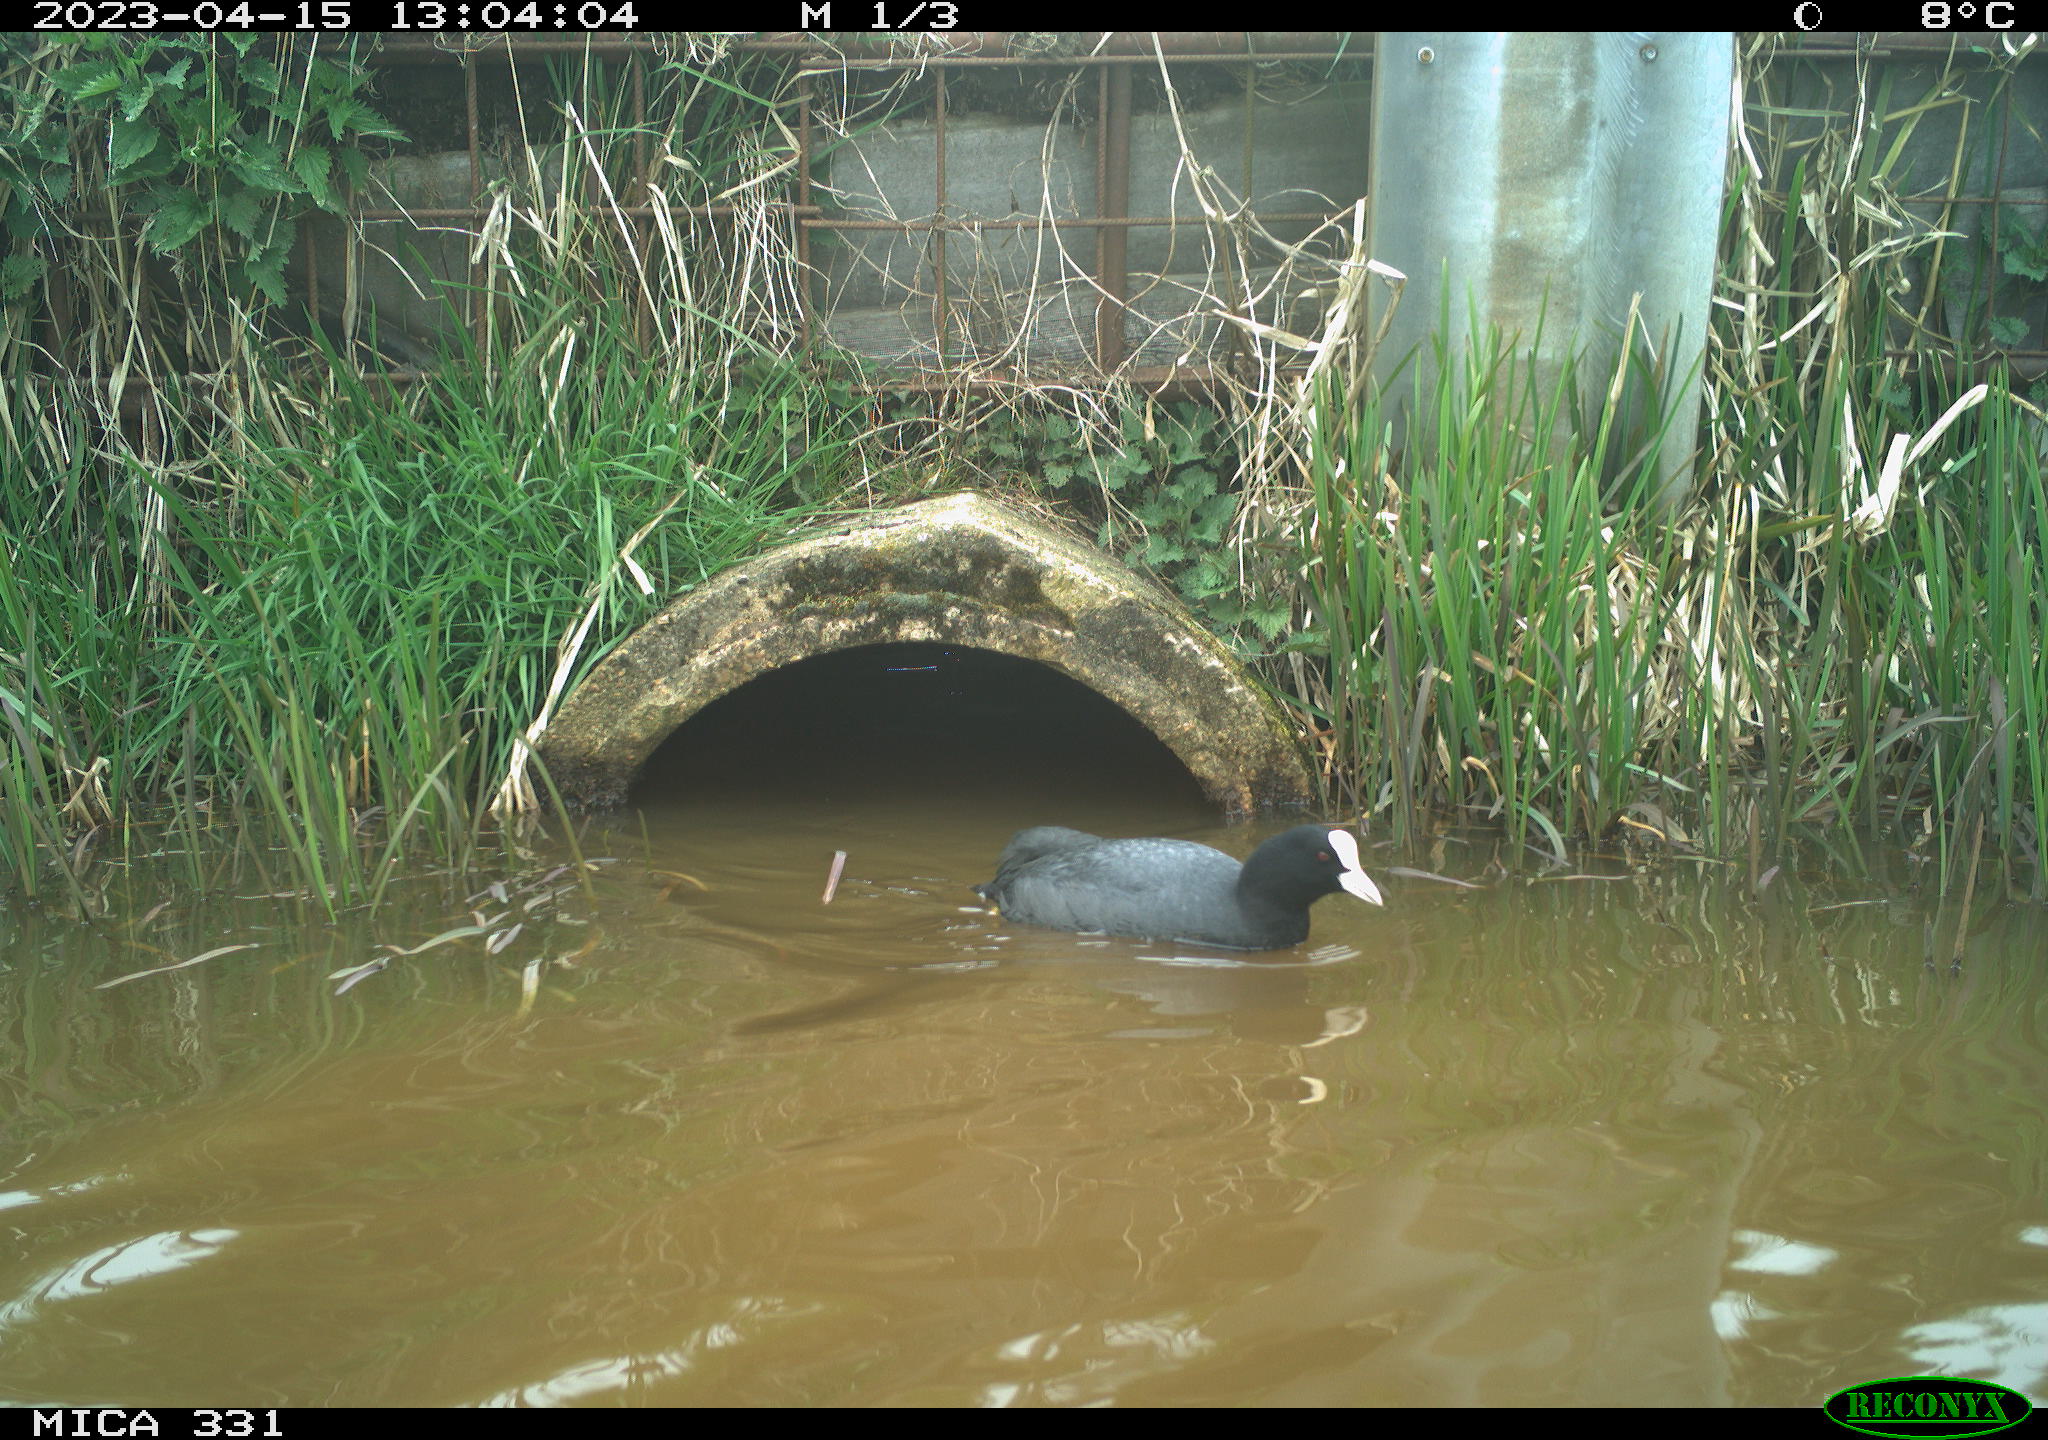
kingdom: Animalia
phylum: Chordata
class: Aves
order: Gruiformes
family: Rallidae
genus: Fulica
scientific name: Fulica atra
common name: Eurasian coot
